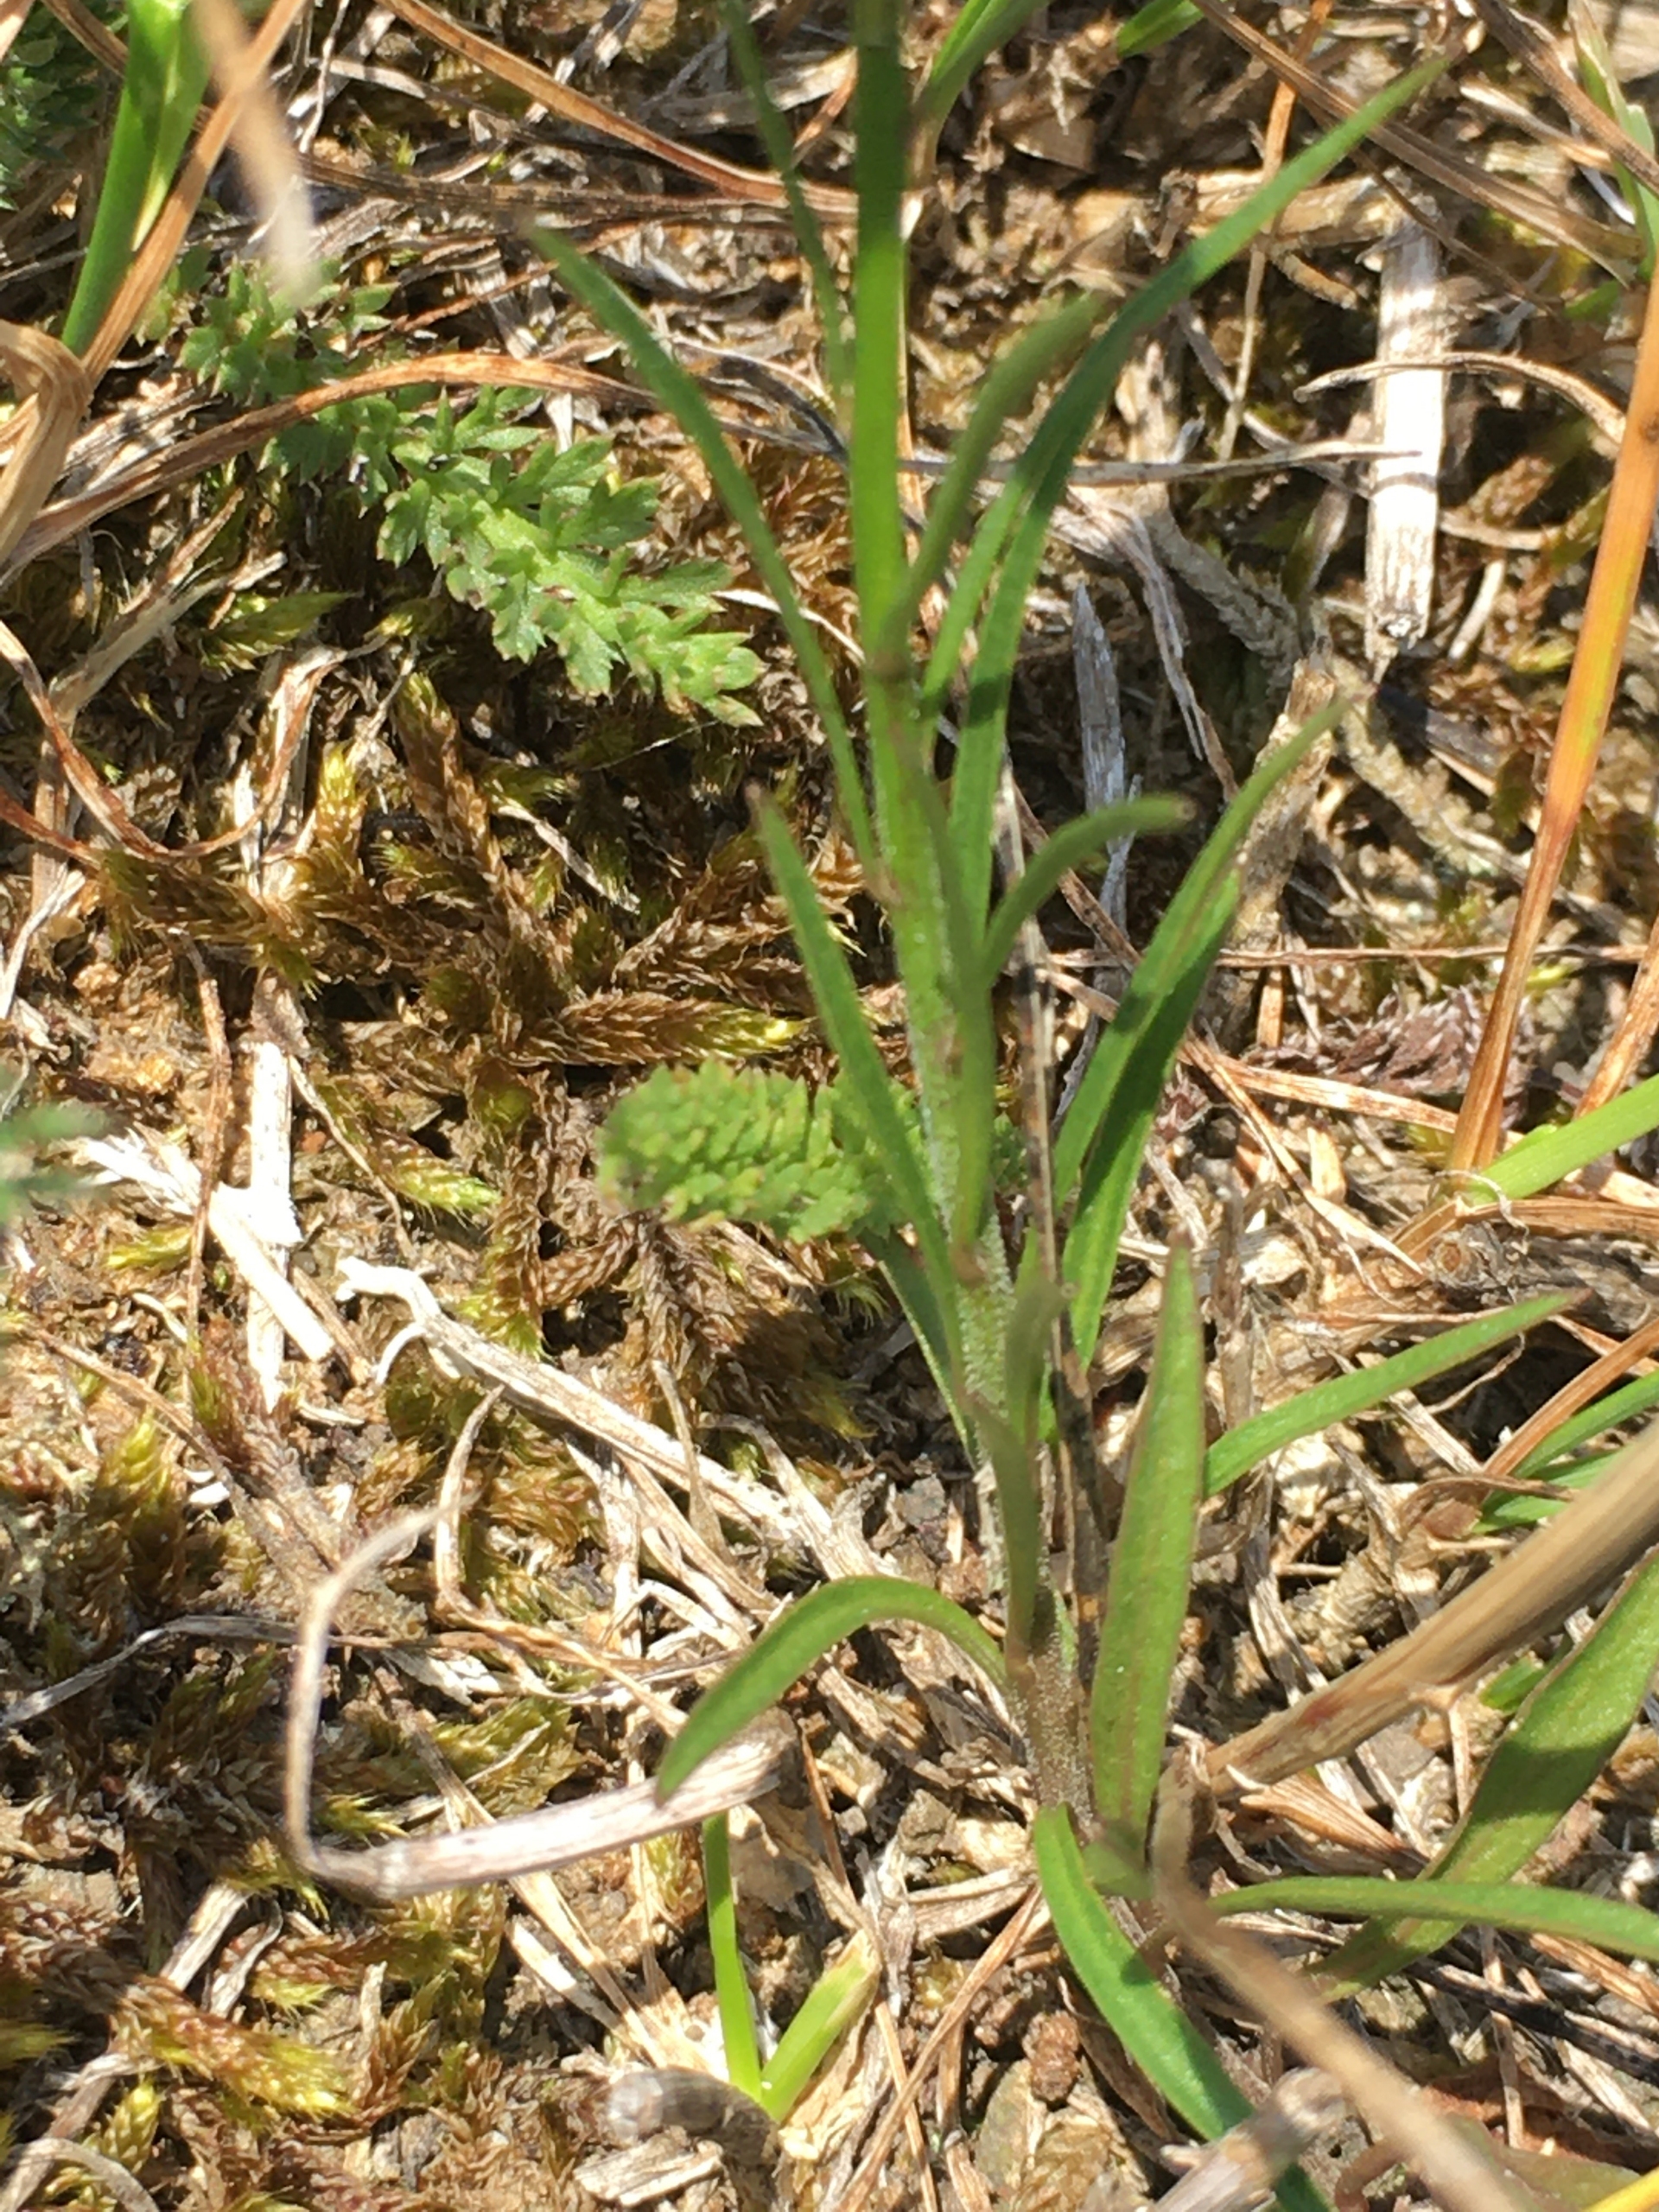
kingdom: Plantae
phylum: Tracheophyta
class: Magnoliopsida
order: Asterales
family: Campanulaceae
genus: Campanula
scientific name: Campanula rotundifolia
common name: Liden klokke
